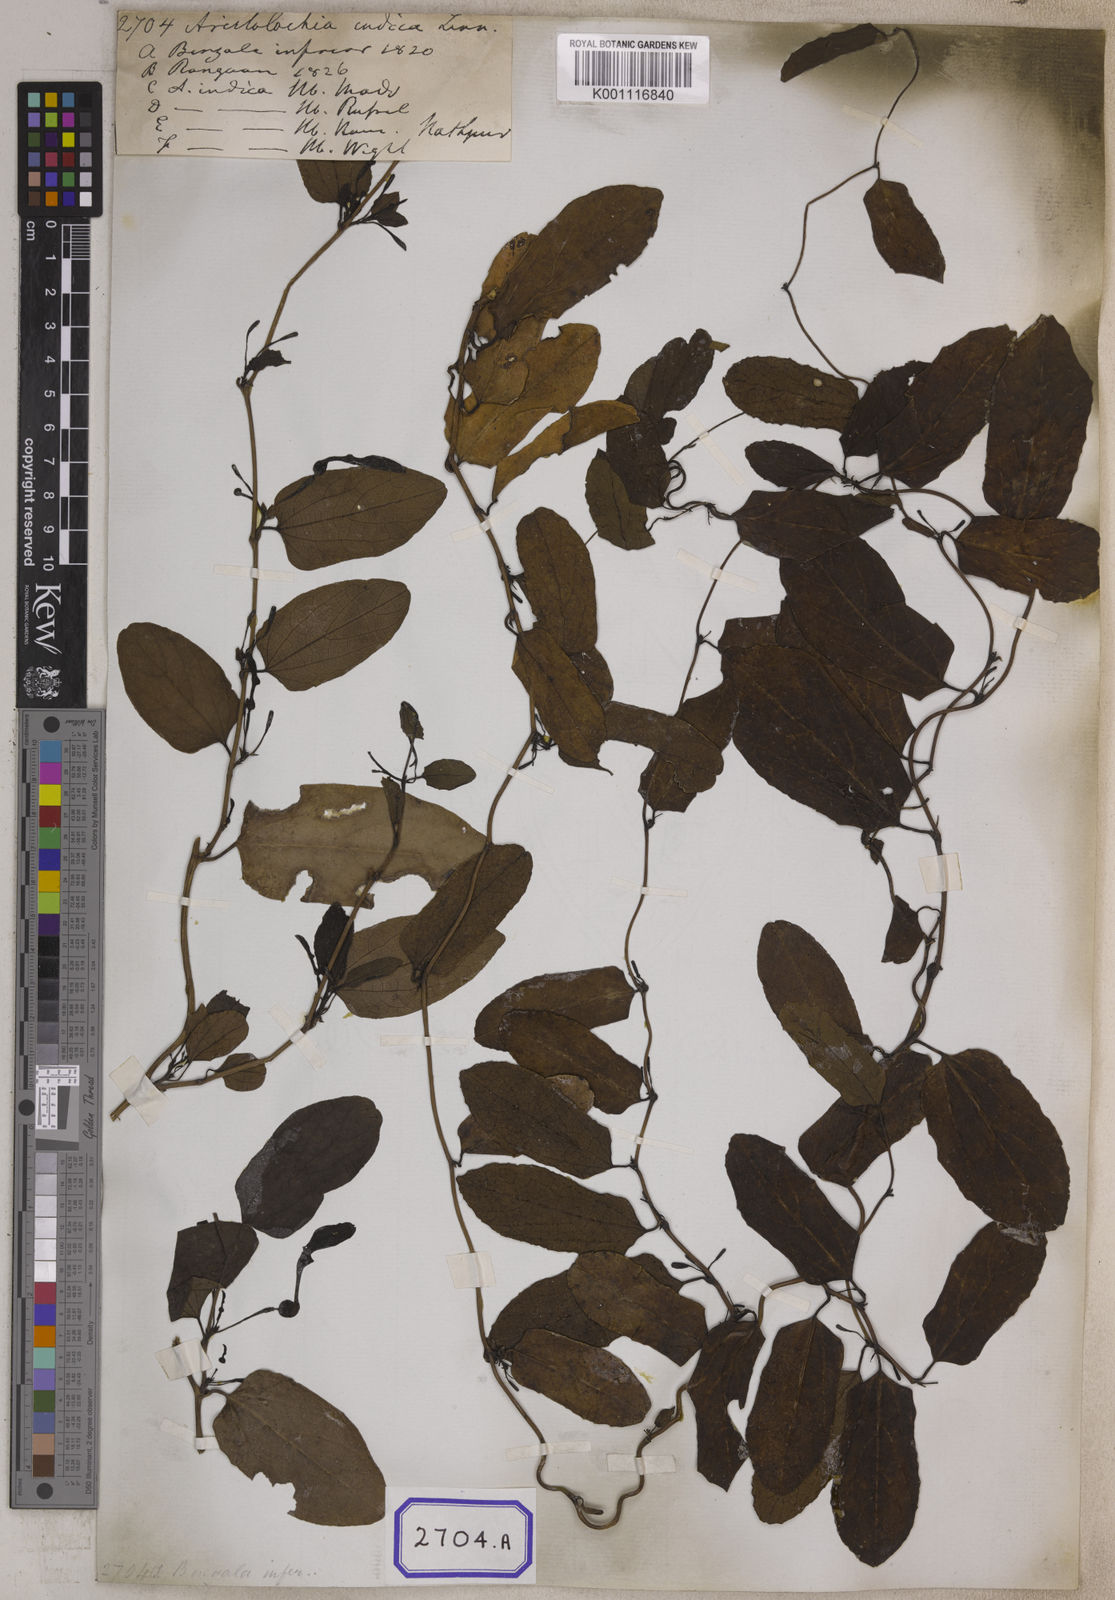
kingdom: Plantae
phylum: Tracheophyta
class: Magnoliopsida
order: Piperales
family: Aristolochiaceae
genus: Aristolochia
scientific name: Aristolochia indica
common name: Indian birthwort
